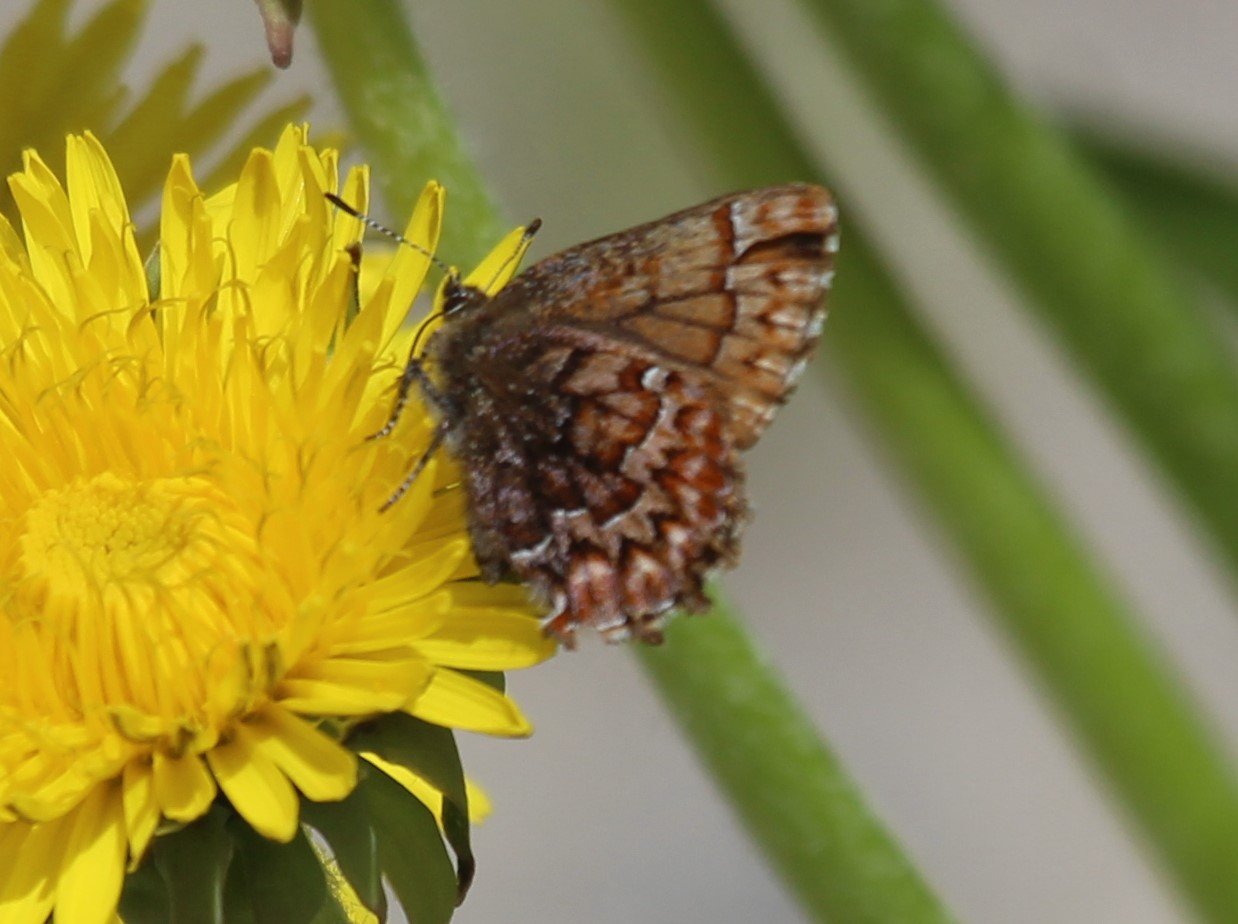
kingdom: Animalia
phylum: Arthropoda
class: Insecta
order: Lepidoptera
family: Lycaenidae
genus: Incisalia
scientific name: Incisalia eryphon
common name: Western Pine Elfin
